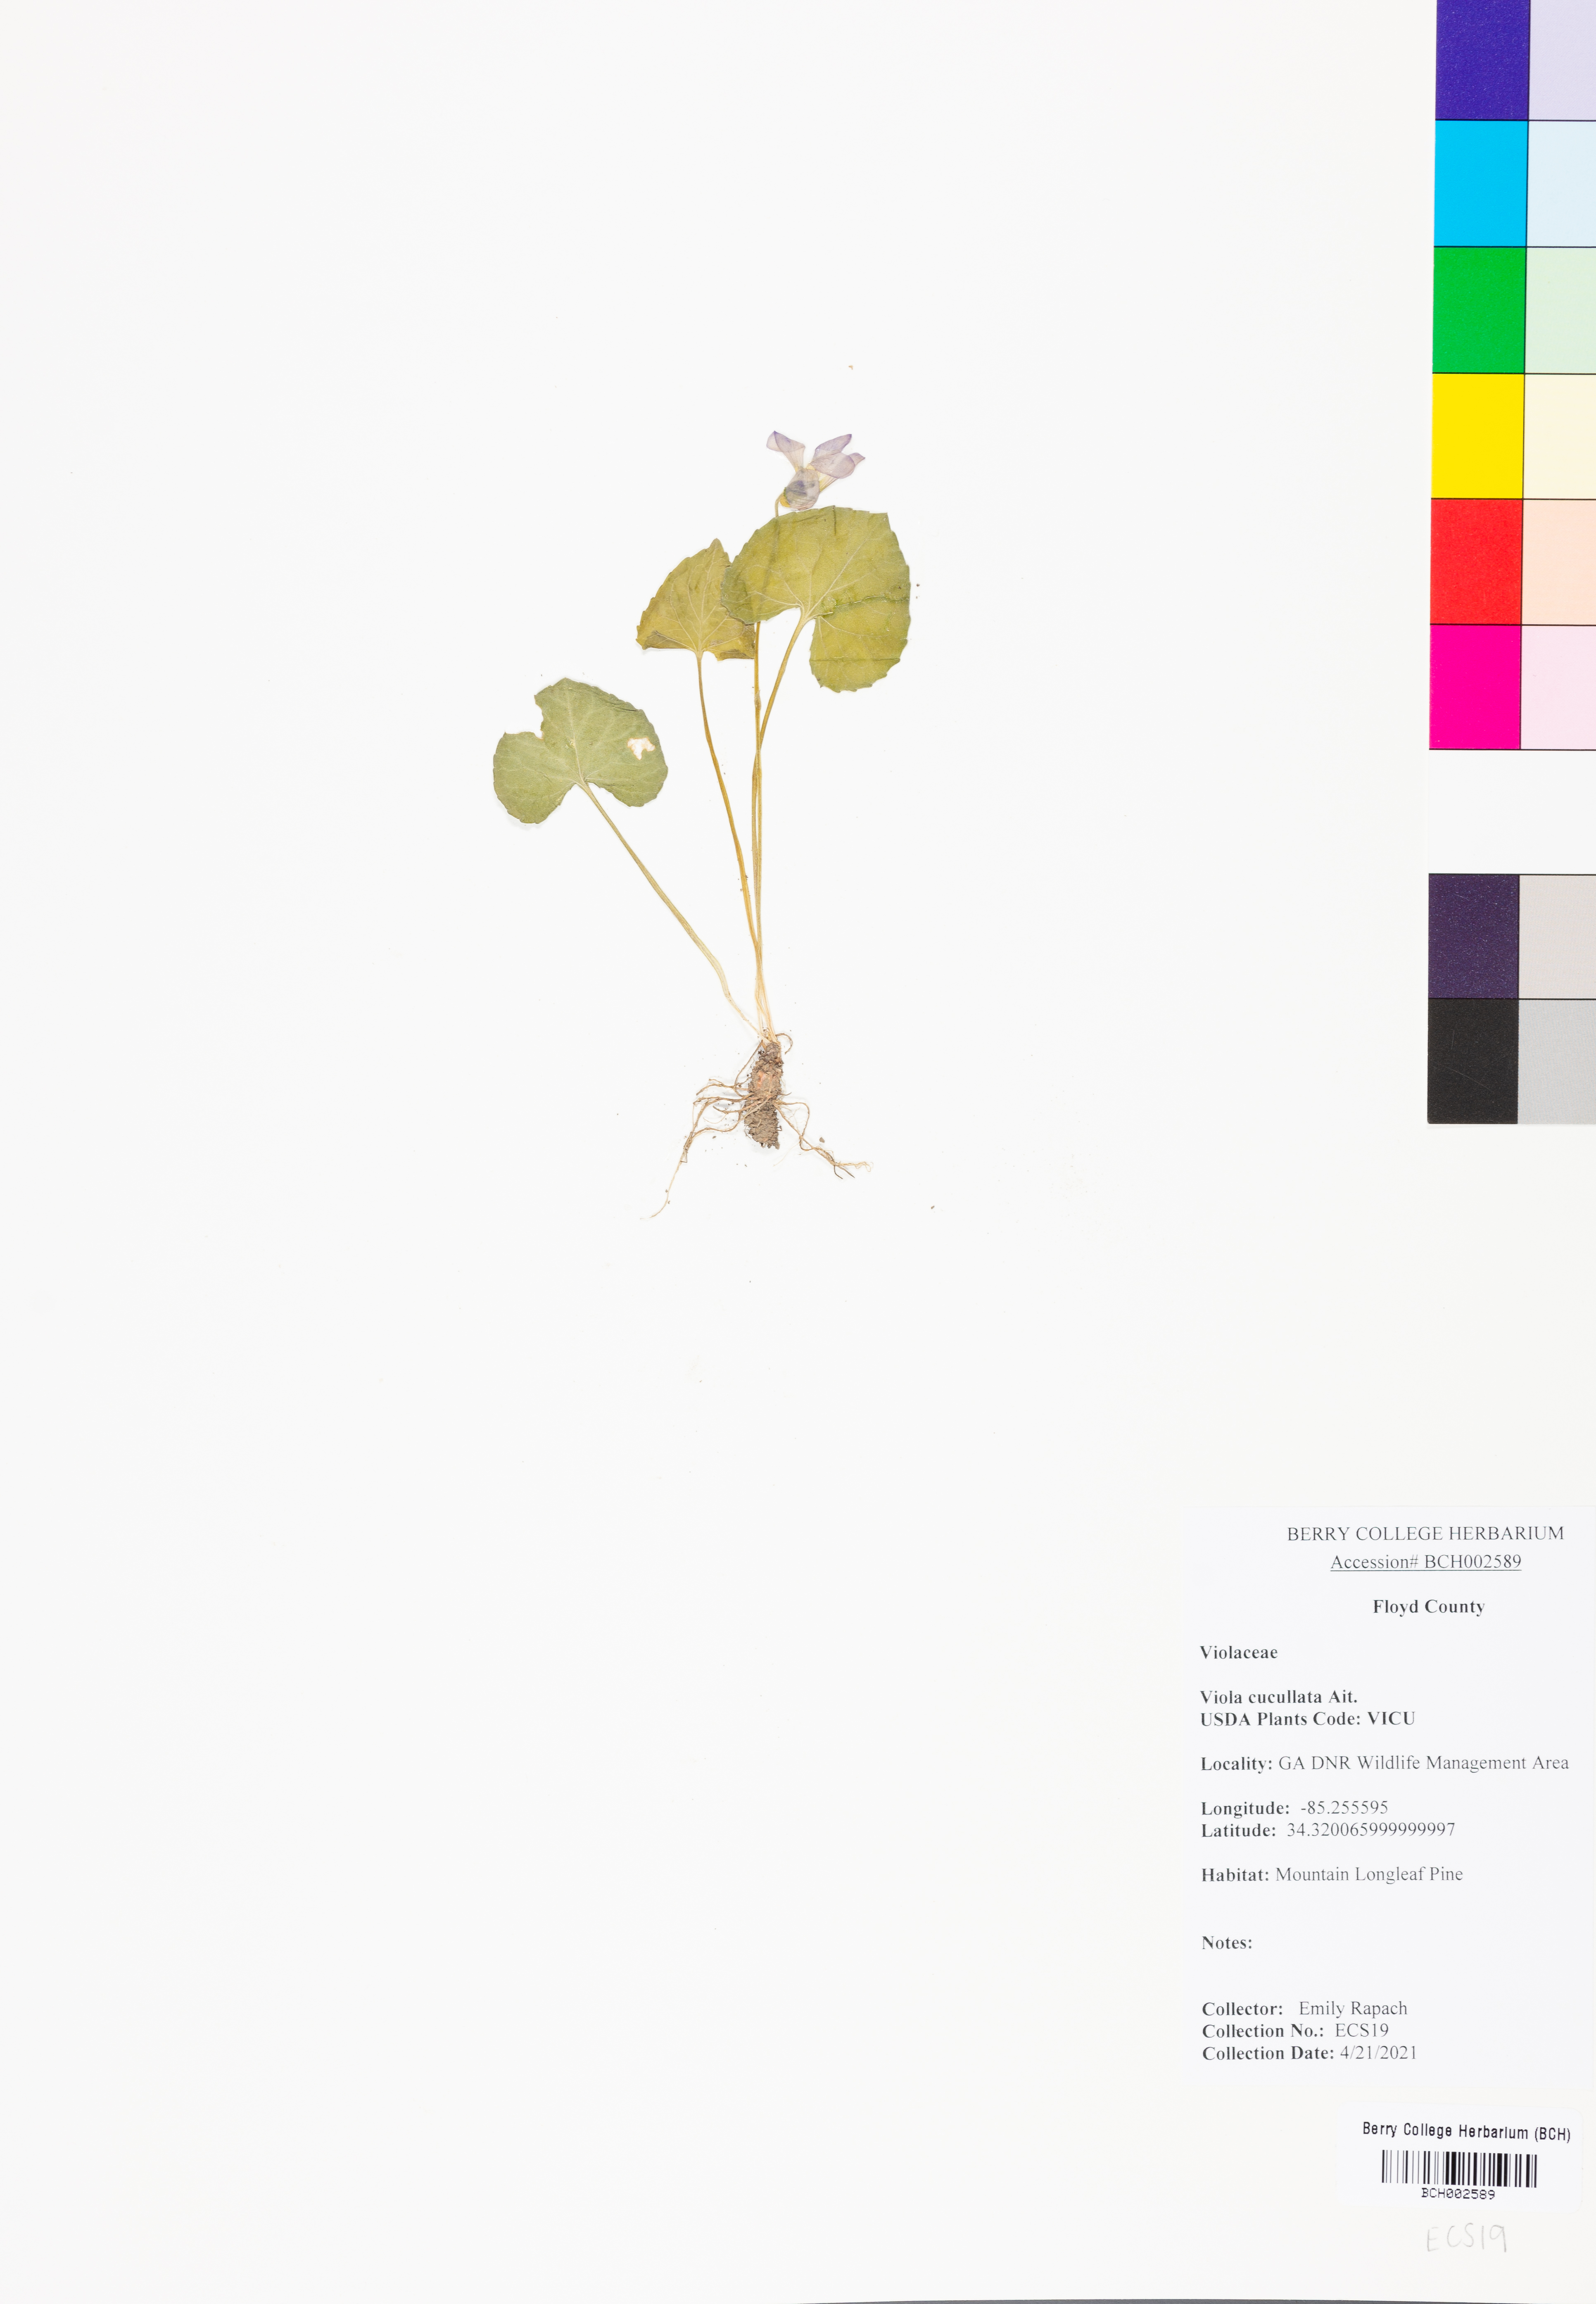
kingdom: Plantae
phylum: Tracheophyta
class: Magnoliopsida
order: Malpighiales
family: Violaceae
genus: Viola
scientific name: Viola cucullata
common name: Marsh blue violet
